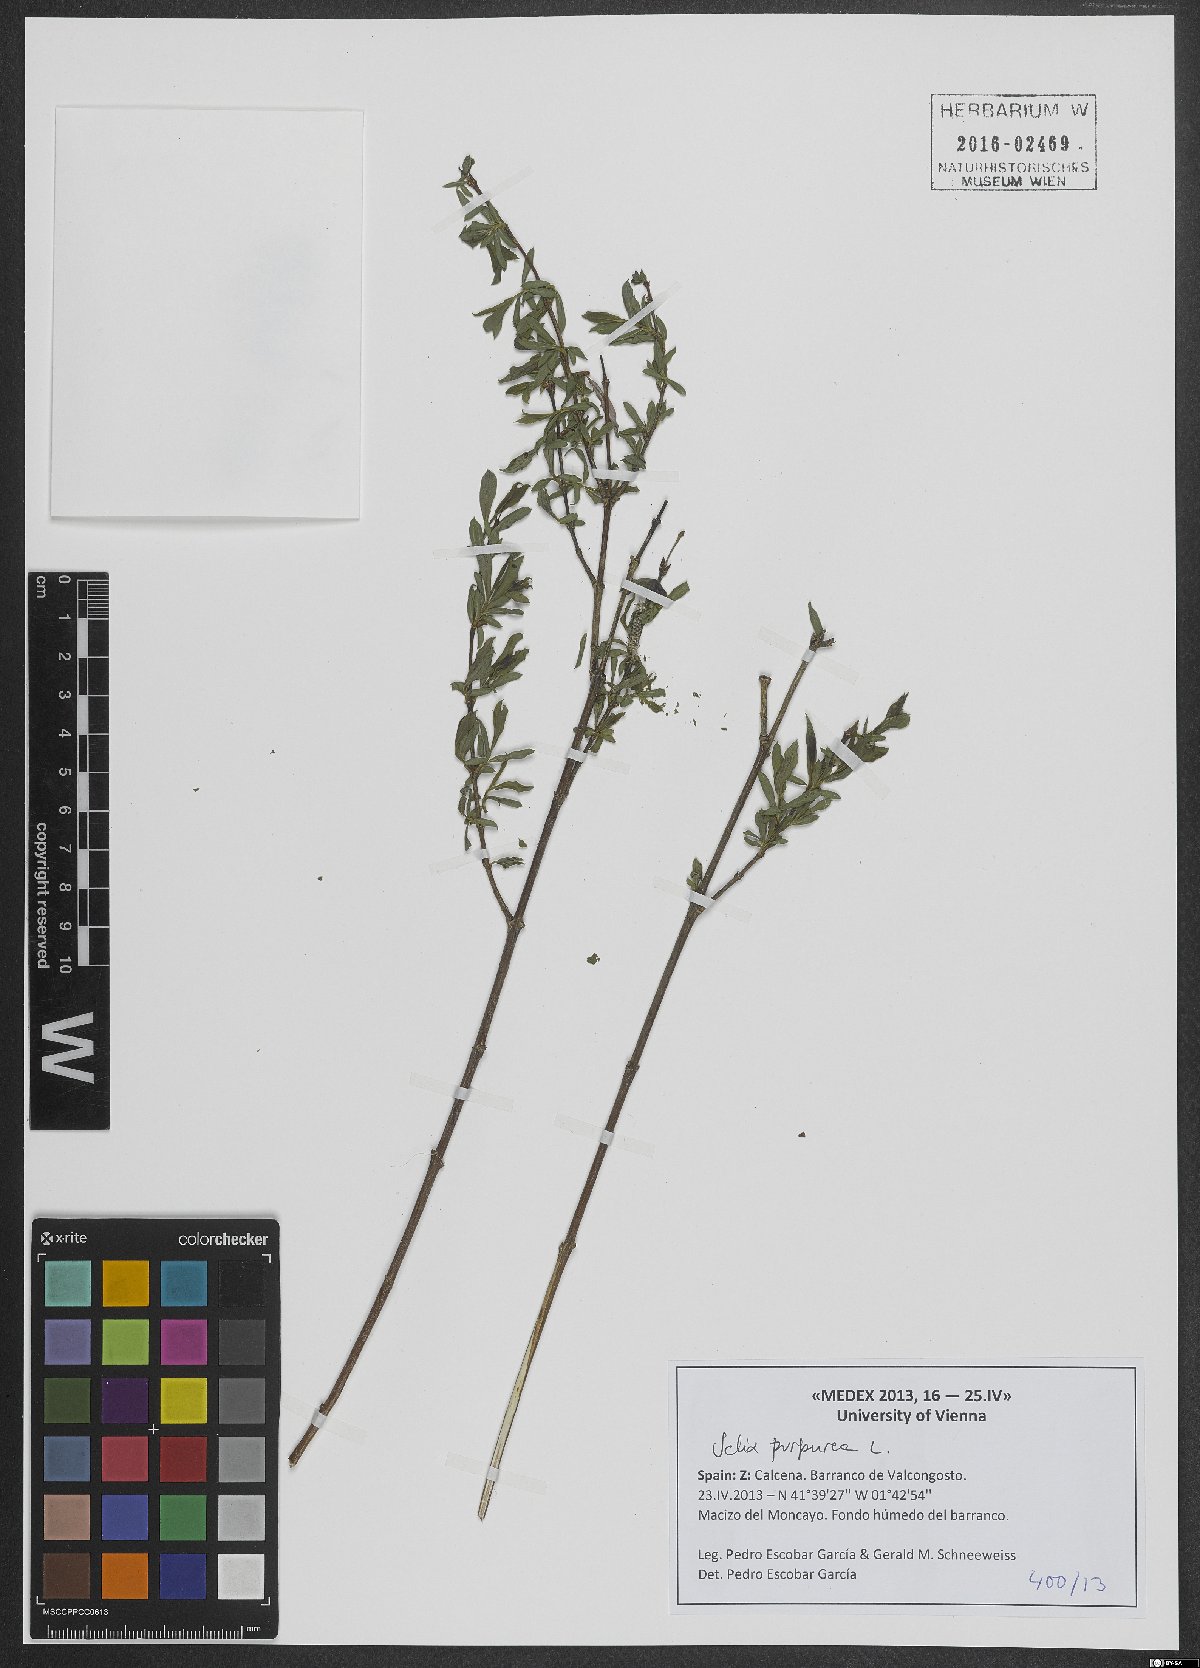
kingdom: Plantae
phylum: Tracheophyta
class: Magnoliopsida
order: Malpighiales
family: Salicaceae
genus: Salix
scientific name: Salix purpurea
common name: Purple willow
